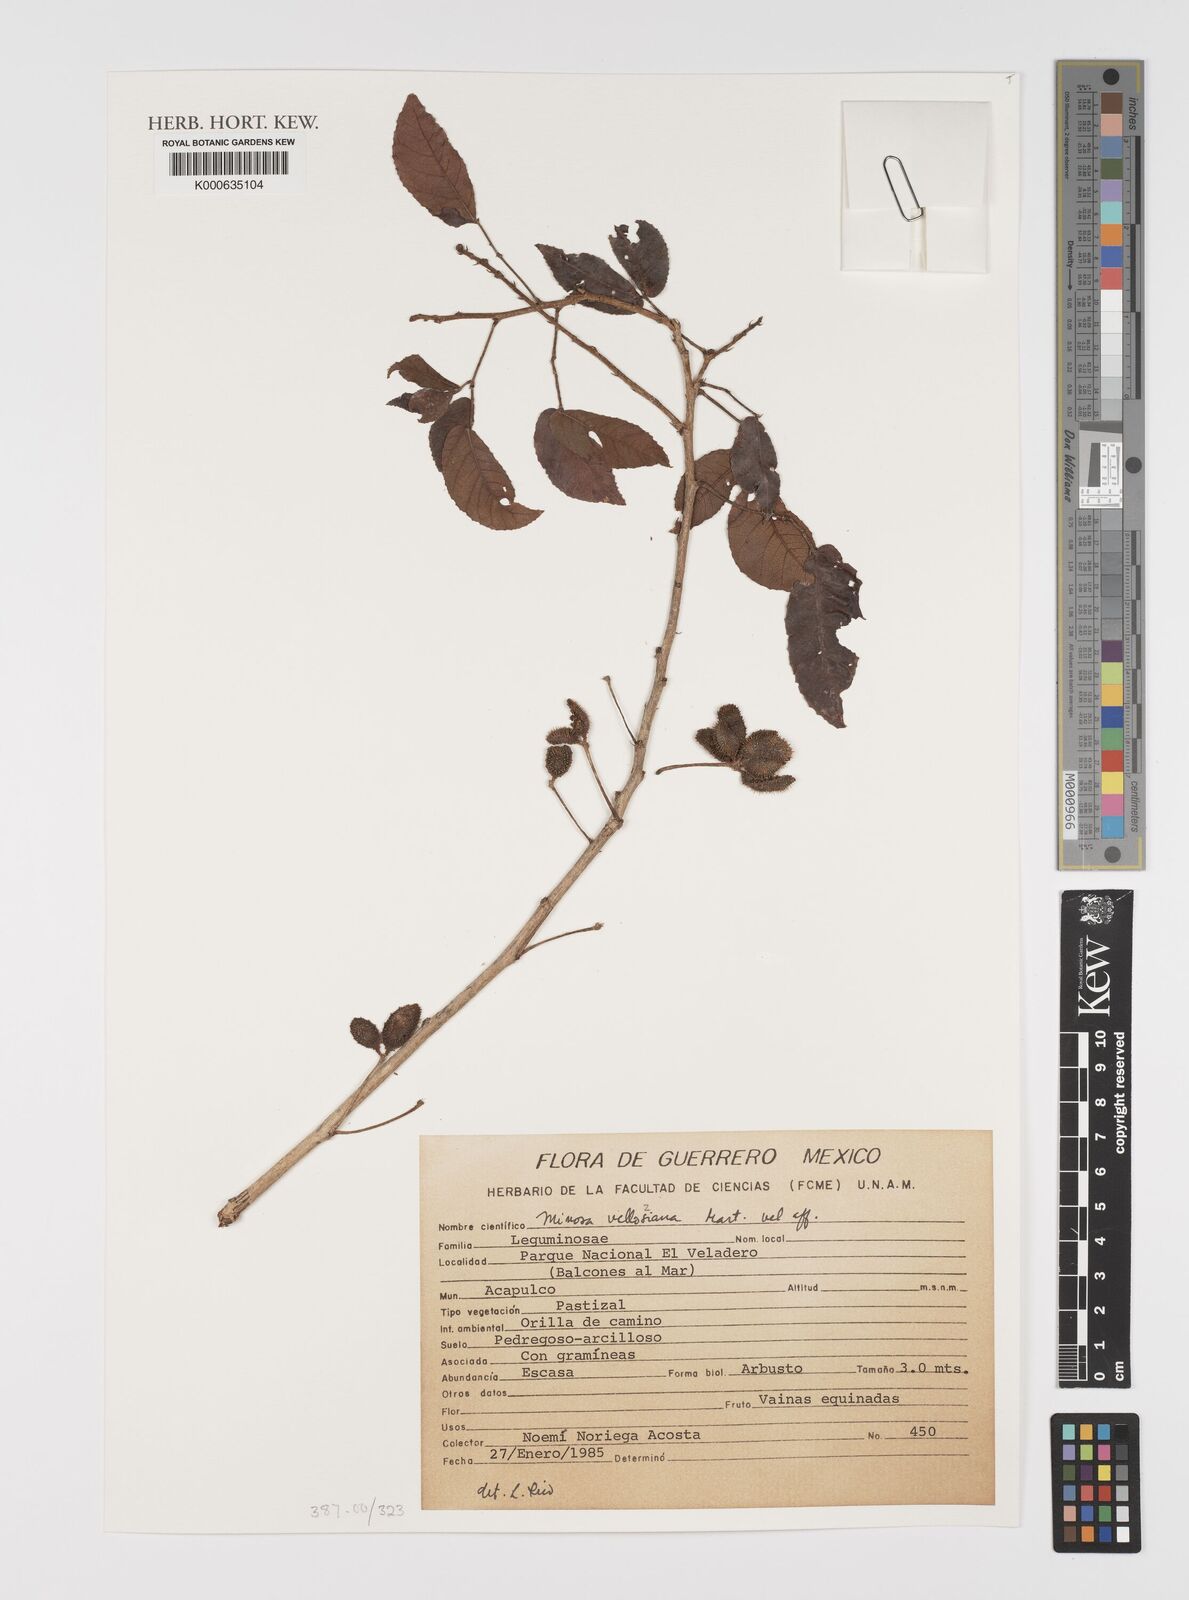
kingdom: Plantae
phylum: Tracheophyta
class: Magnoliopsida
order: Fabales
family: Fabaceae
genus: Mimosa
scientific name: Mimosa
